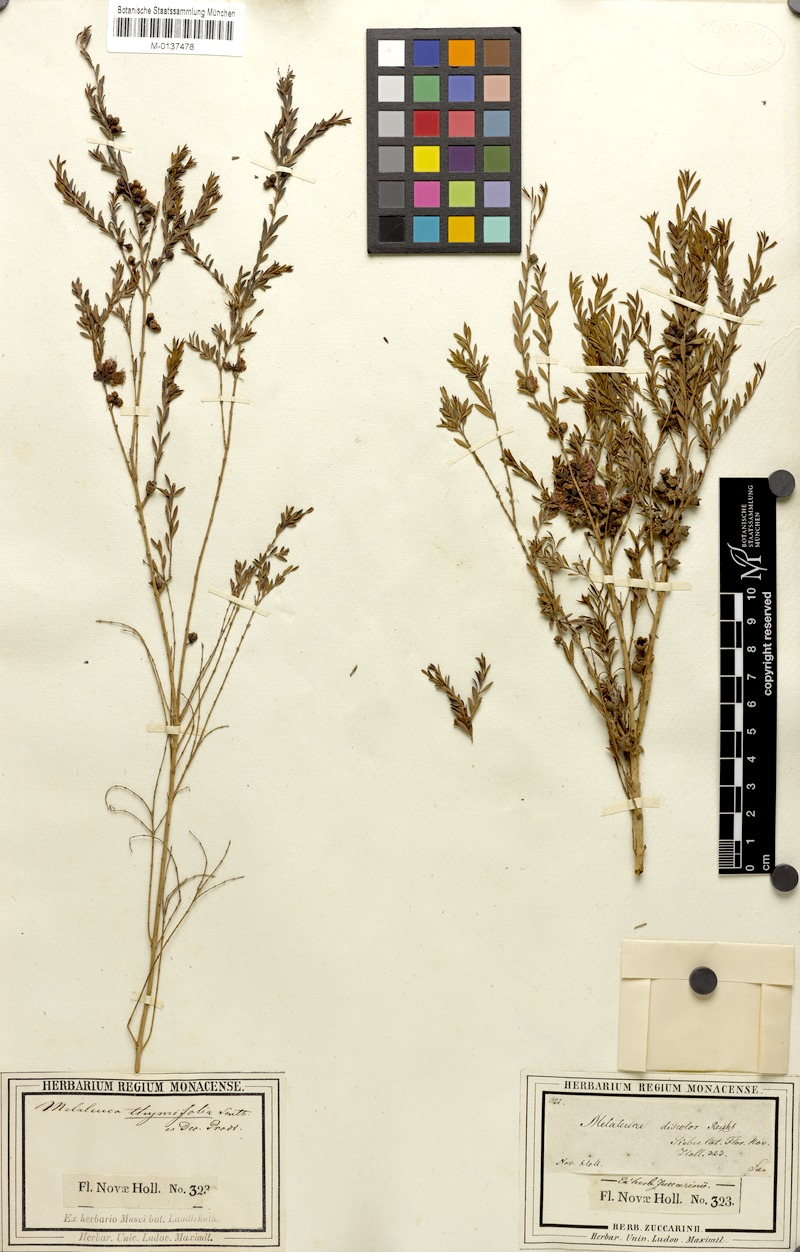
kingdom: Plantae
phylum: Tracheophyta
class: Magnoliopsida
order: Myrtales
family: Myrtaceae
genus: Melaleuca
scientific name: Melaleuca thymifolia
